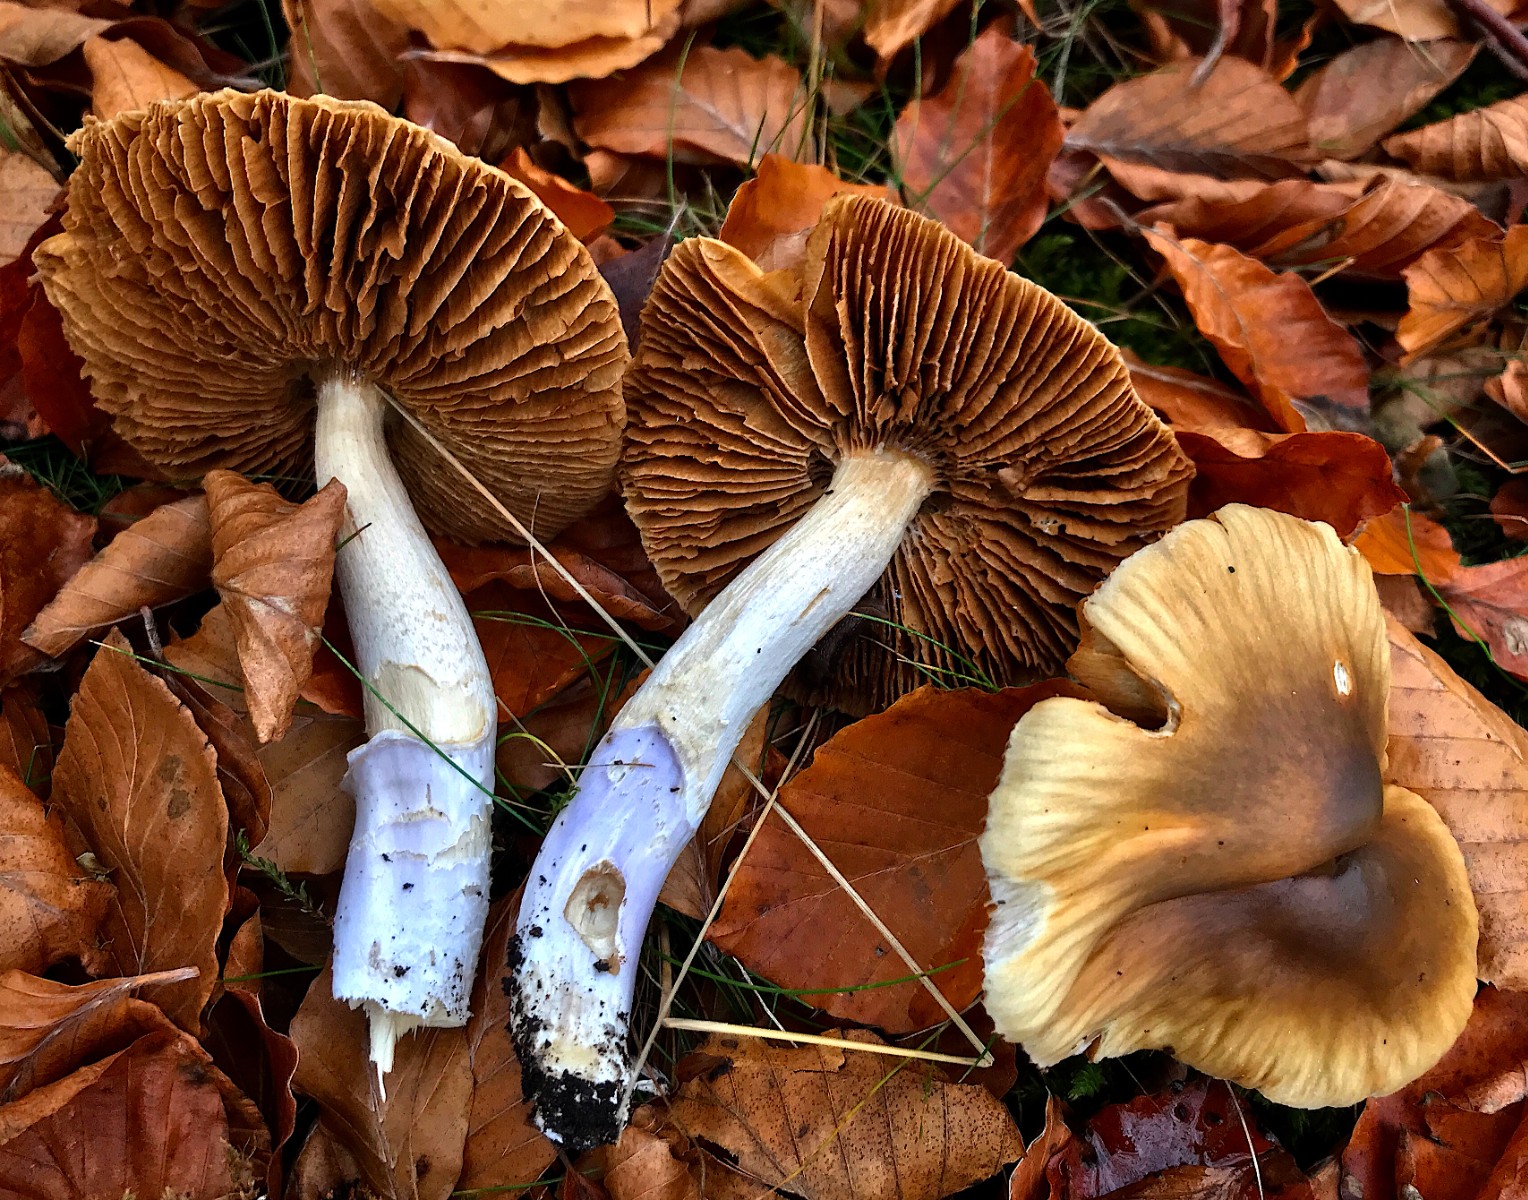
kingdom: Fungi
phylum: Basidiomycota
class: Agaricomycetes
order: Agaricales
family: Cortinariaceae
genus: Cortinarius
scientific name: Cortinarius elatior
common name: høj slørhat
